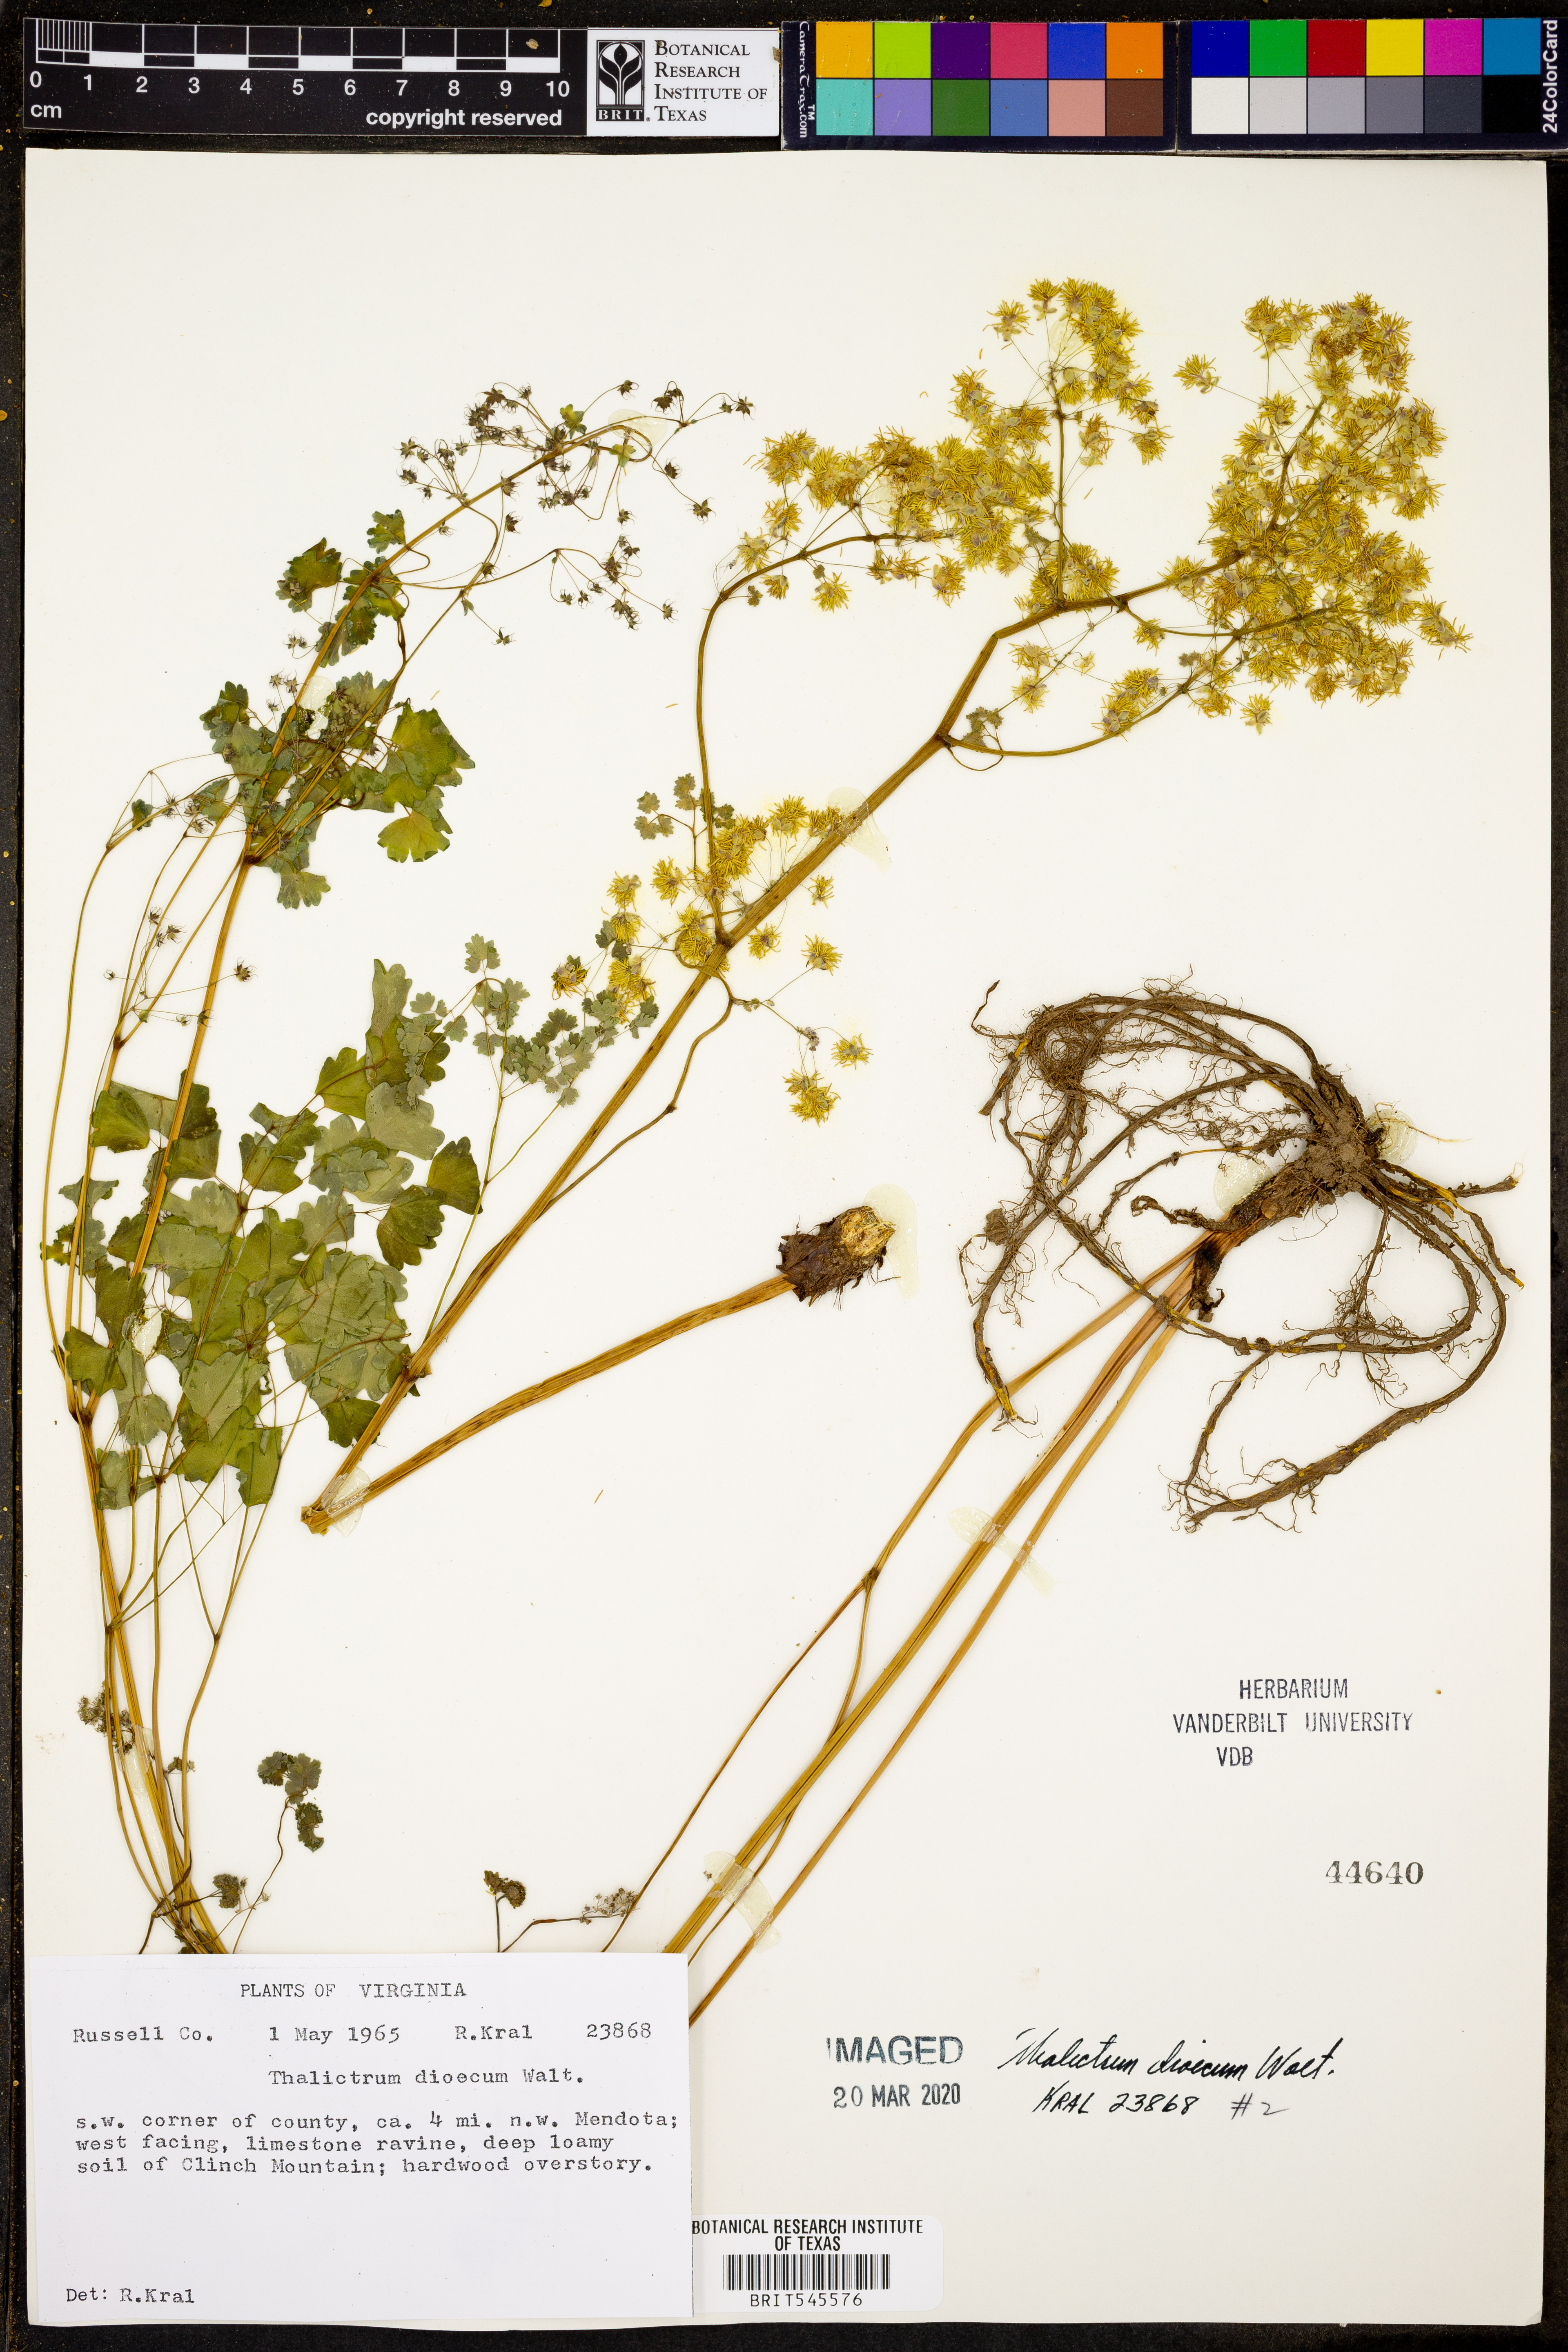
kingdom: Plantae
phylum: Tracheophyta
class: Magnoliopsida
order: Ranunculales
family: Ranunculaceae
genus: Thalictrum
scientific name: Thalictrum dioicum
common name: Early meadow-rue
